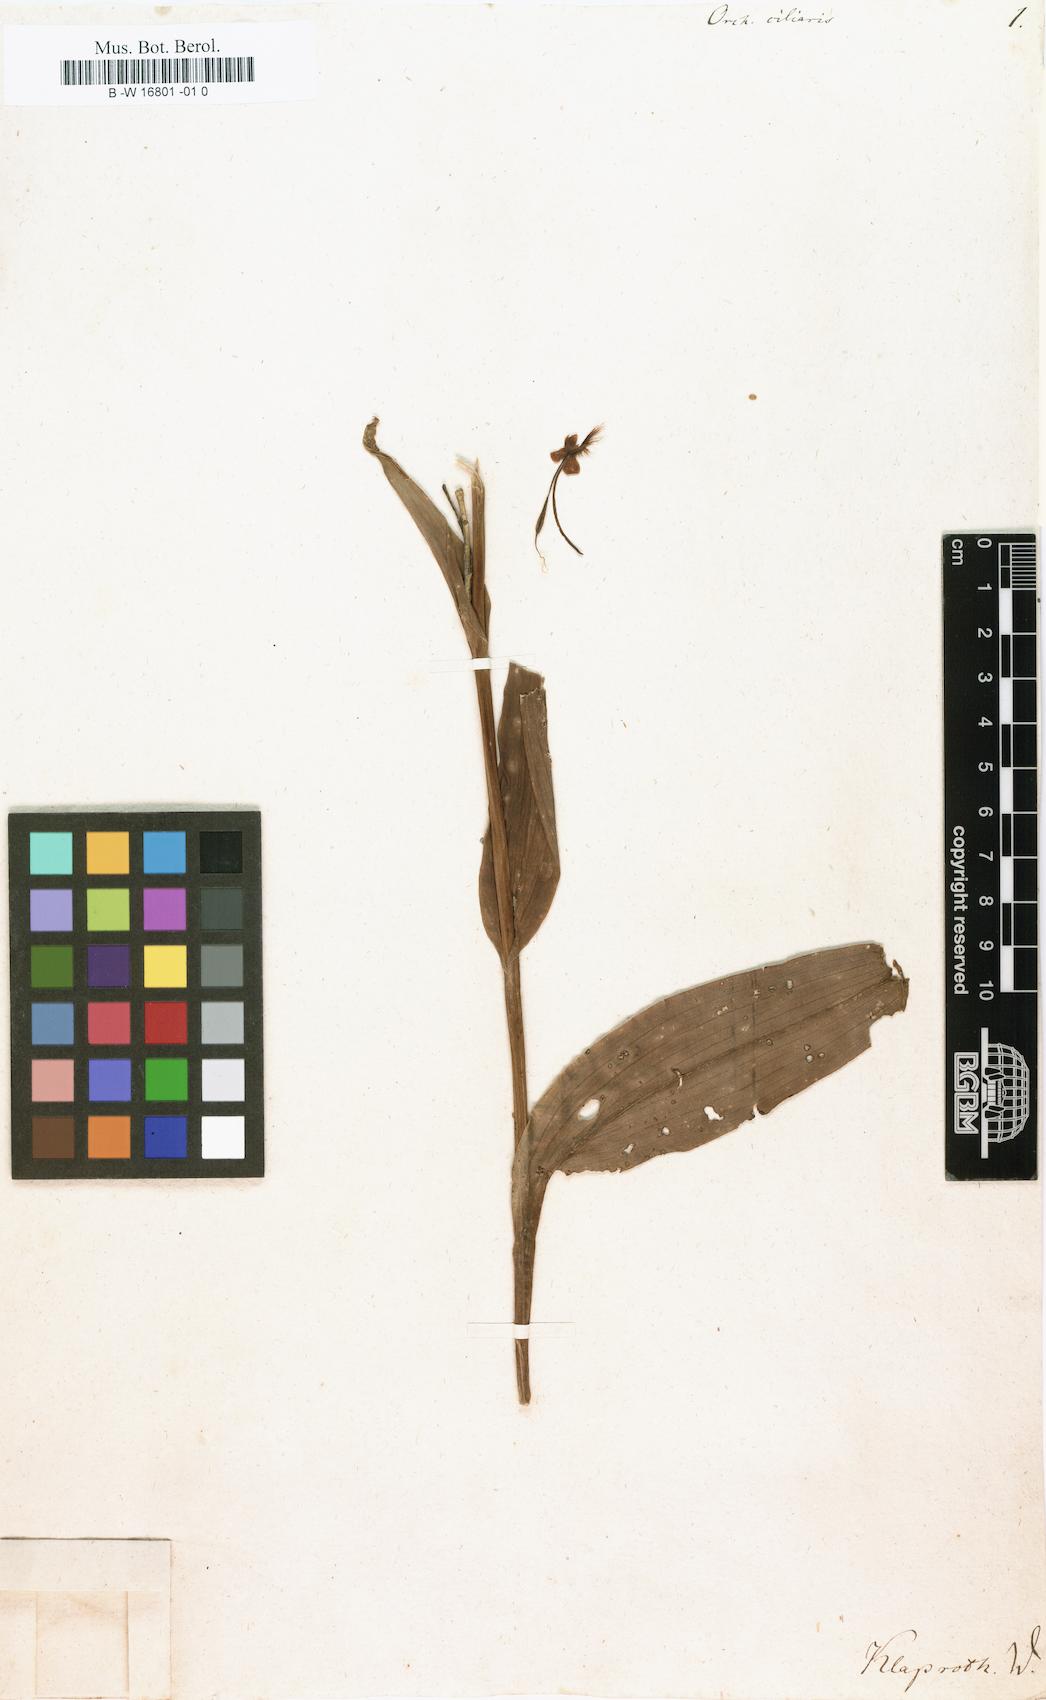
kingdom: Plantae
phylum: Tracheophyta
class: Liliopsida
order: Asparagales
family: Orchidaceae
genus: Platanthera
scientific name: Platanthera ciliaris
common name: Yellow fringed orchid
